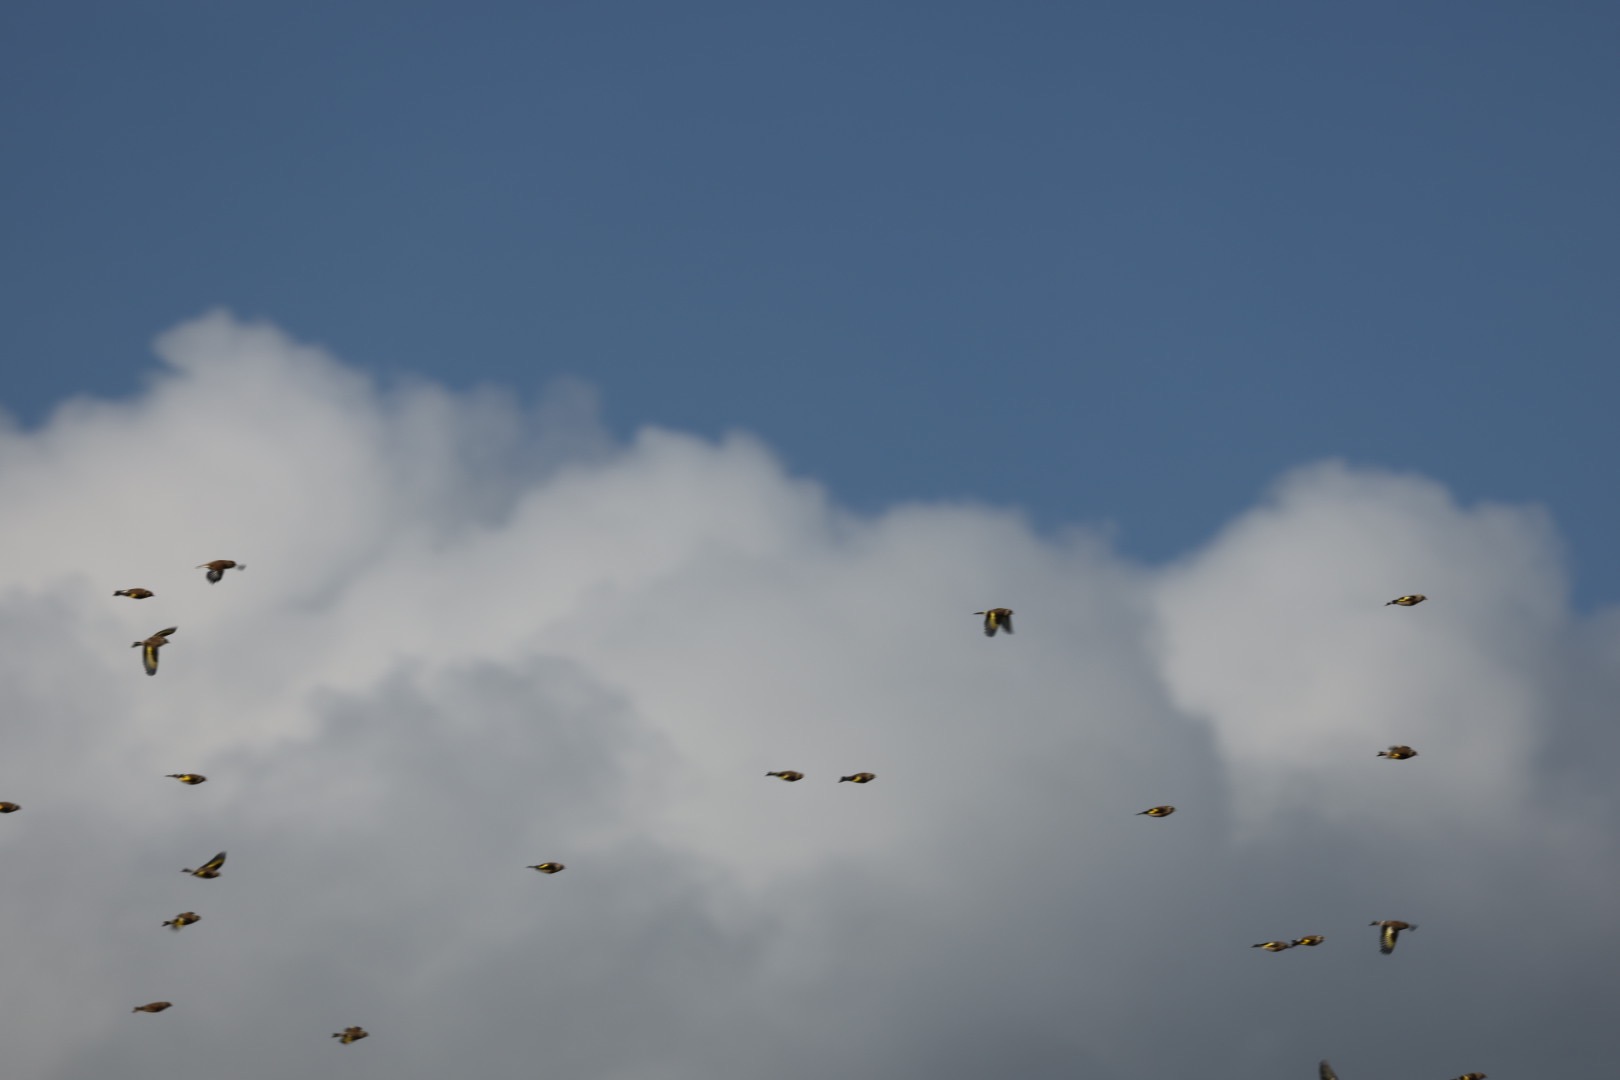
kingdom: Animalia
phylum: Chordata
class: Aves
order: Passeriformes
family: Fringillidae
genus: Carduelis
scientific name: Carduelis carduelis
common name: Stillits
